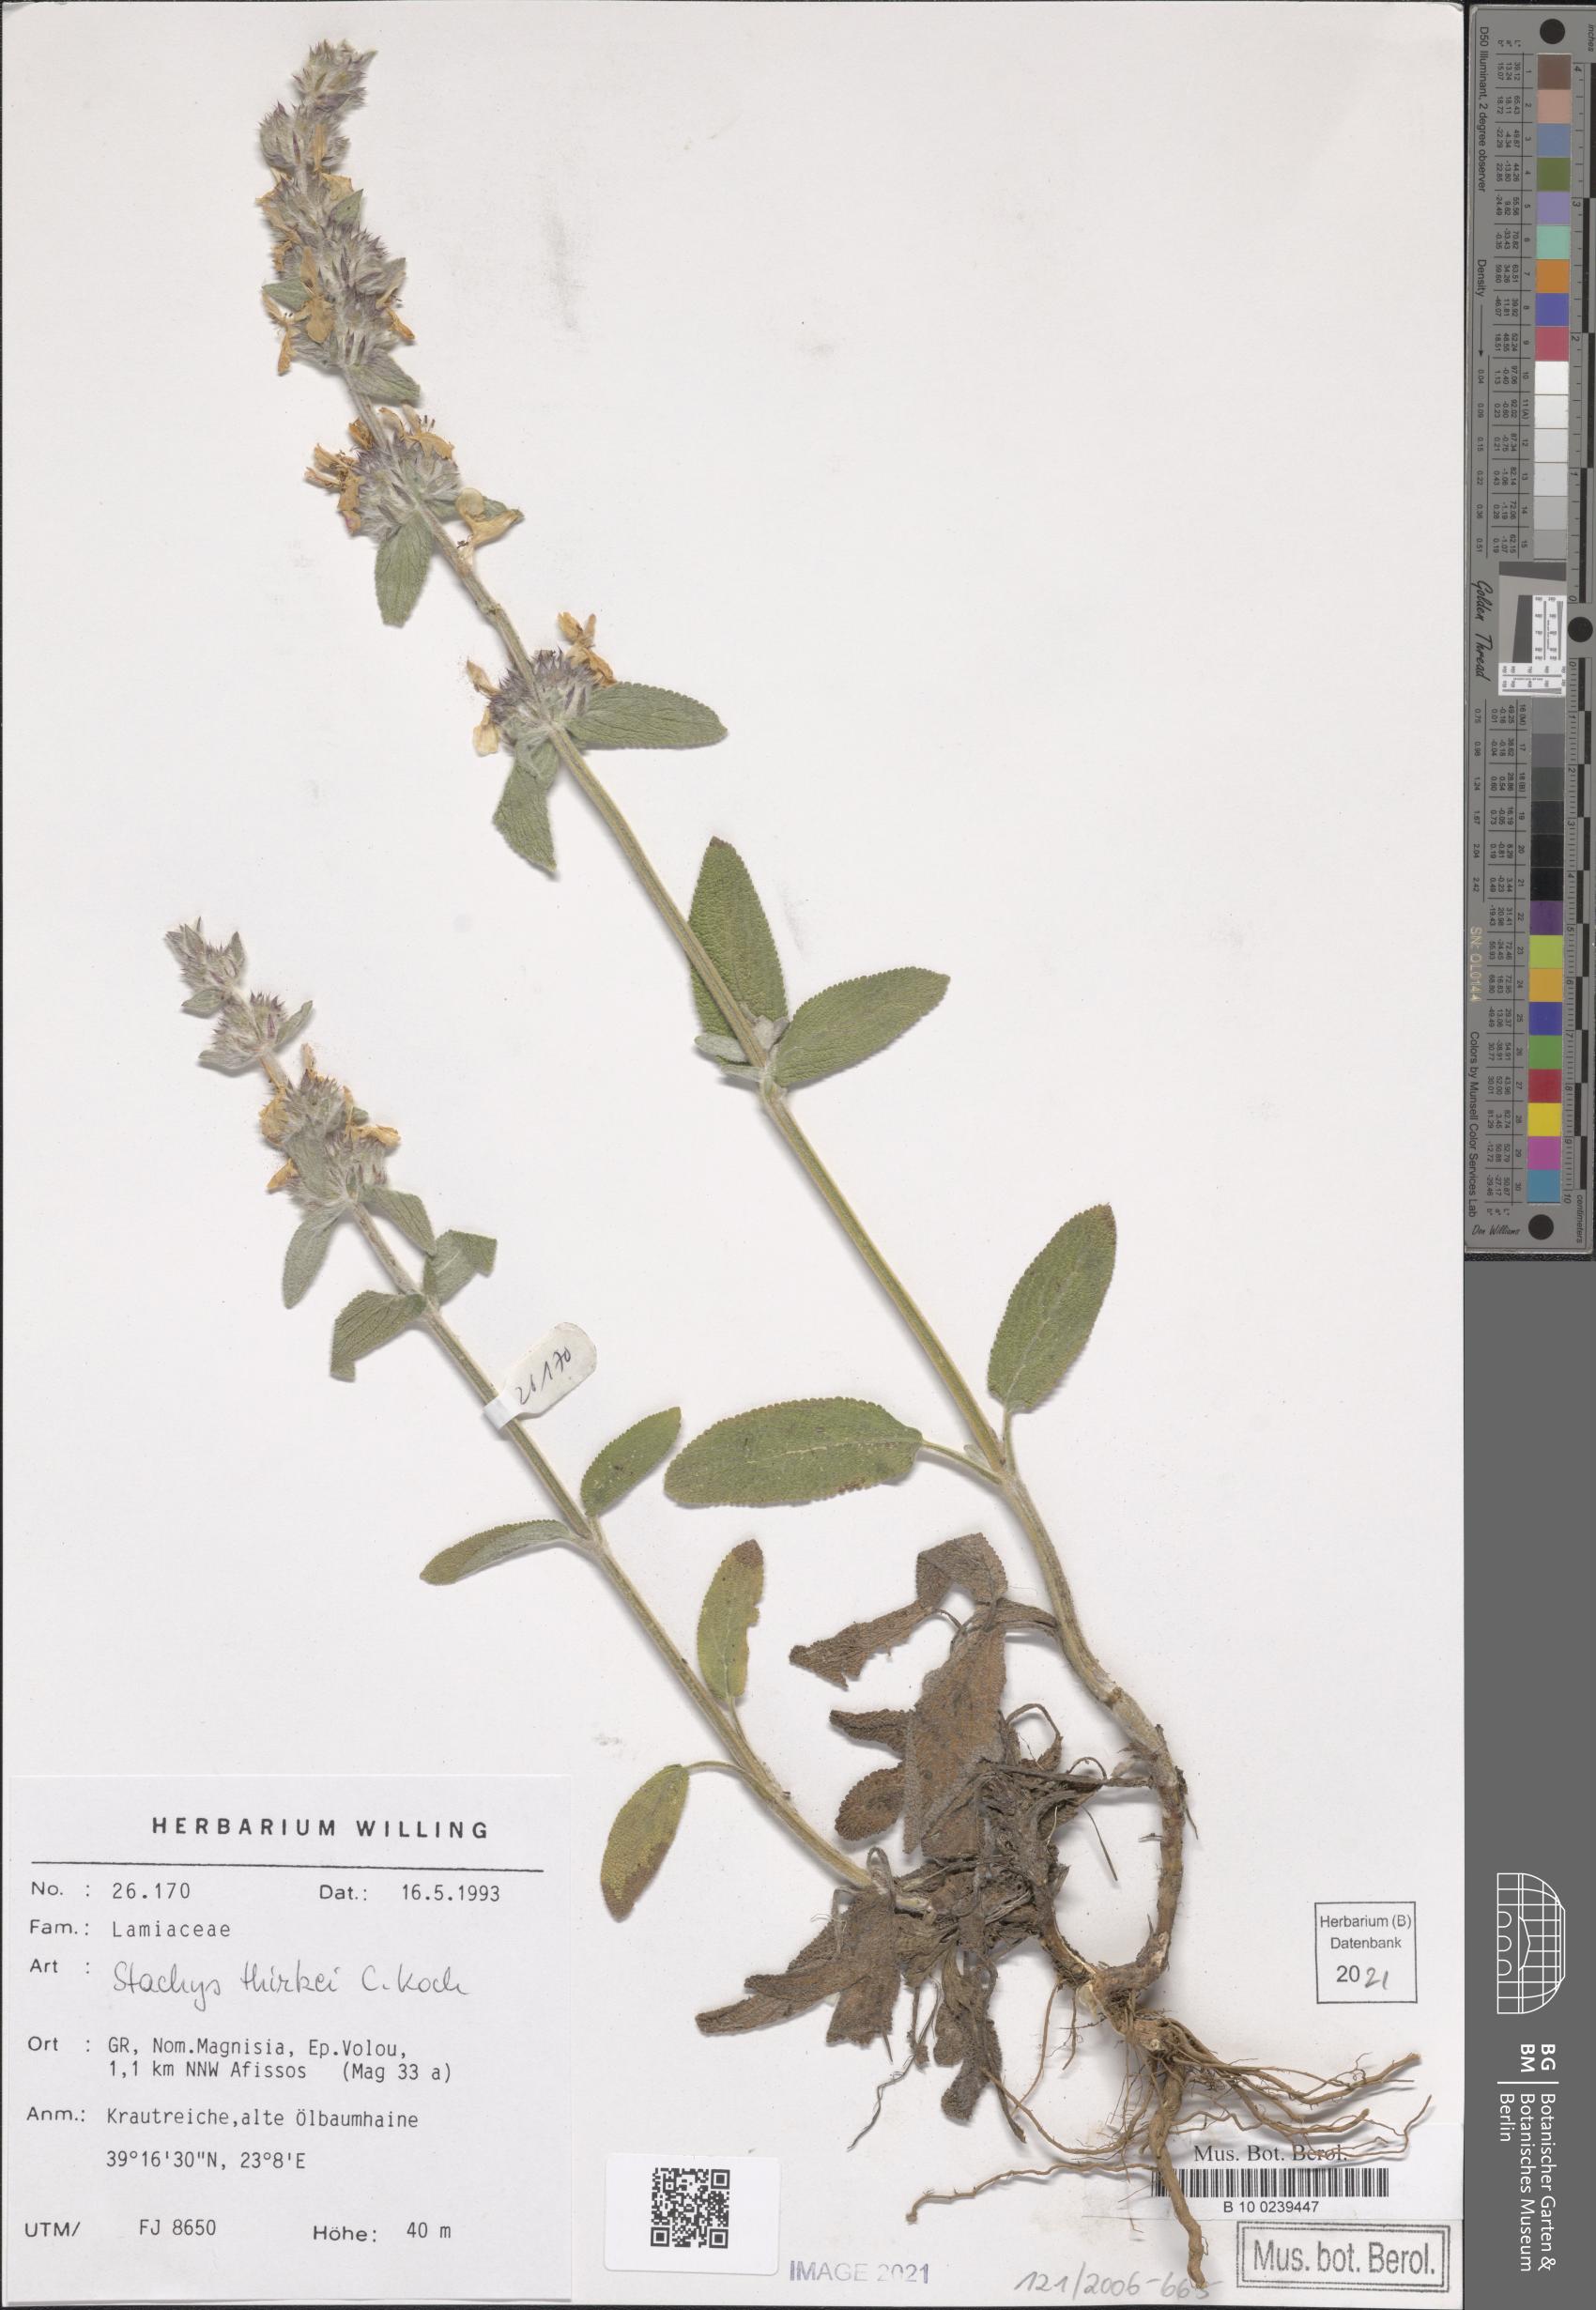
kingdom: Plantae
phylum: Tracheophyta
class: Magnoliopsida
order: Lamiales
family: Lamiaceae
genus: Stachys
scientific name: Stachys thirkei
